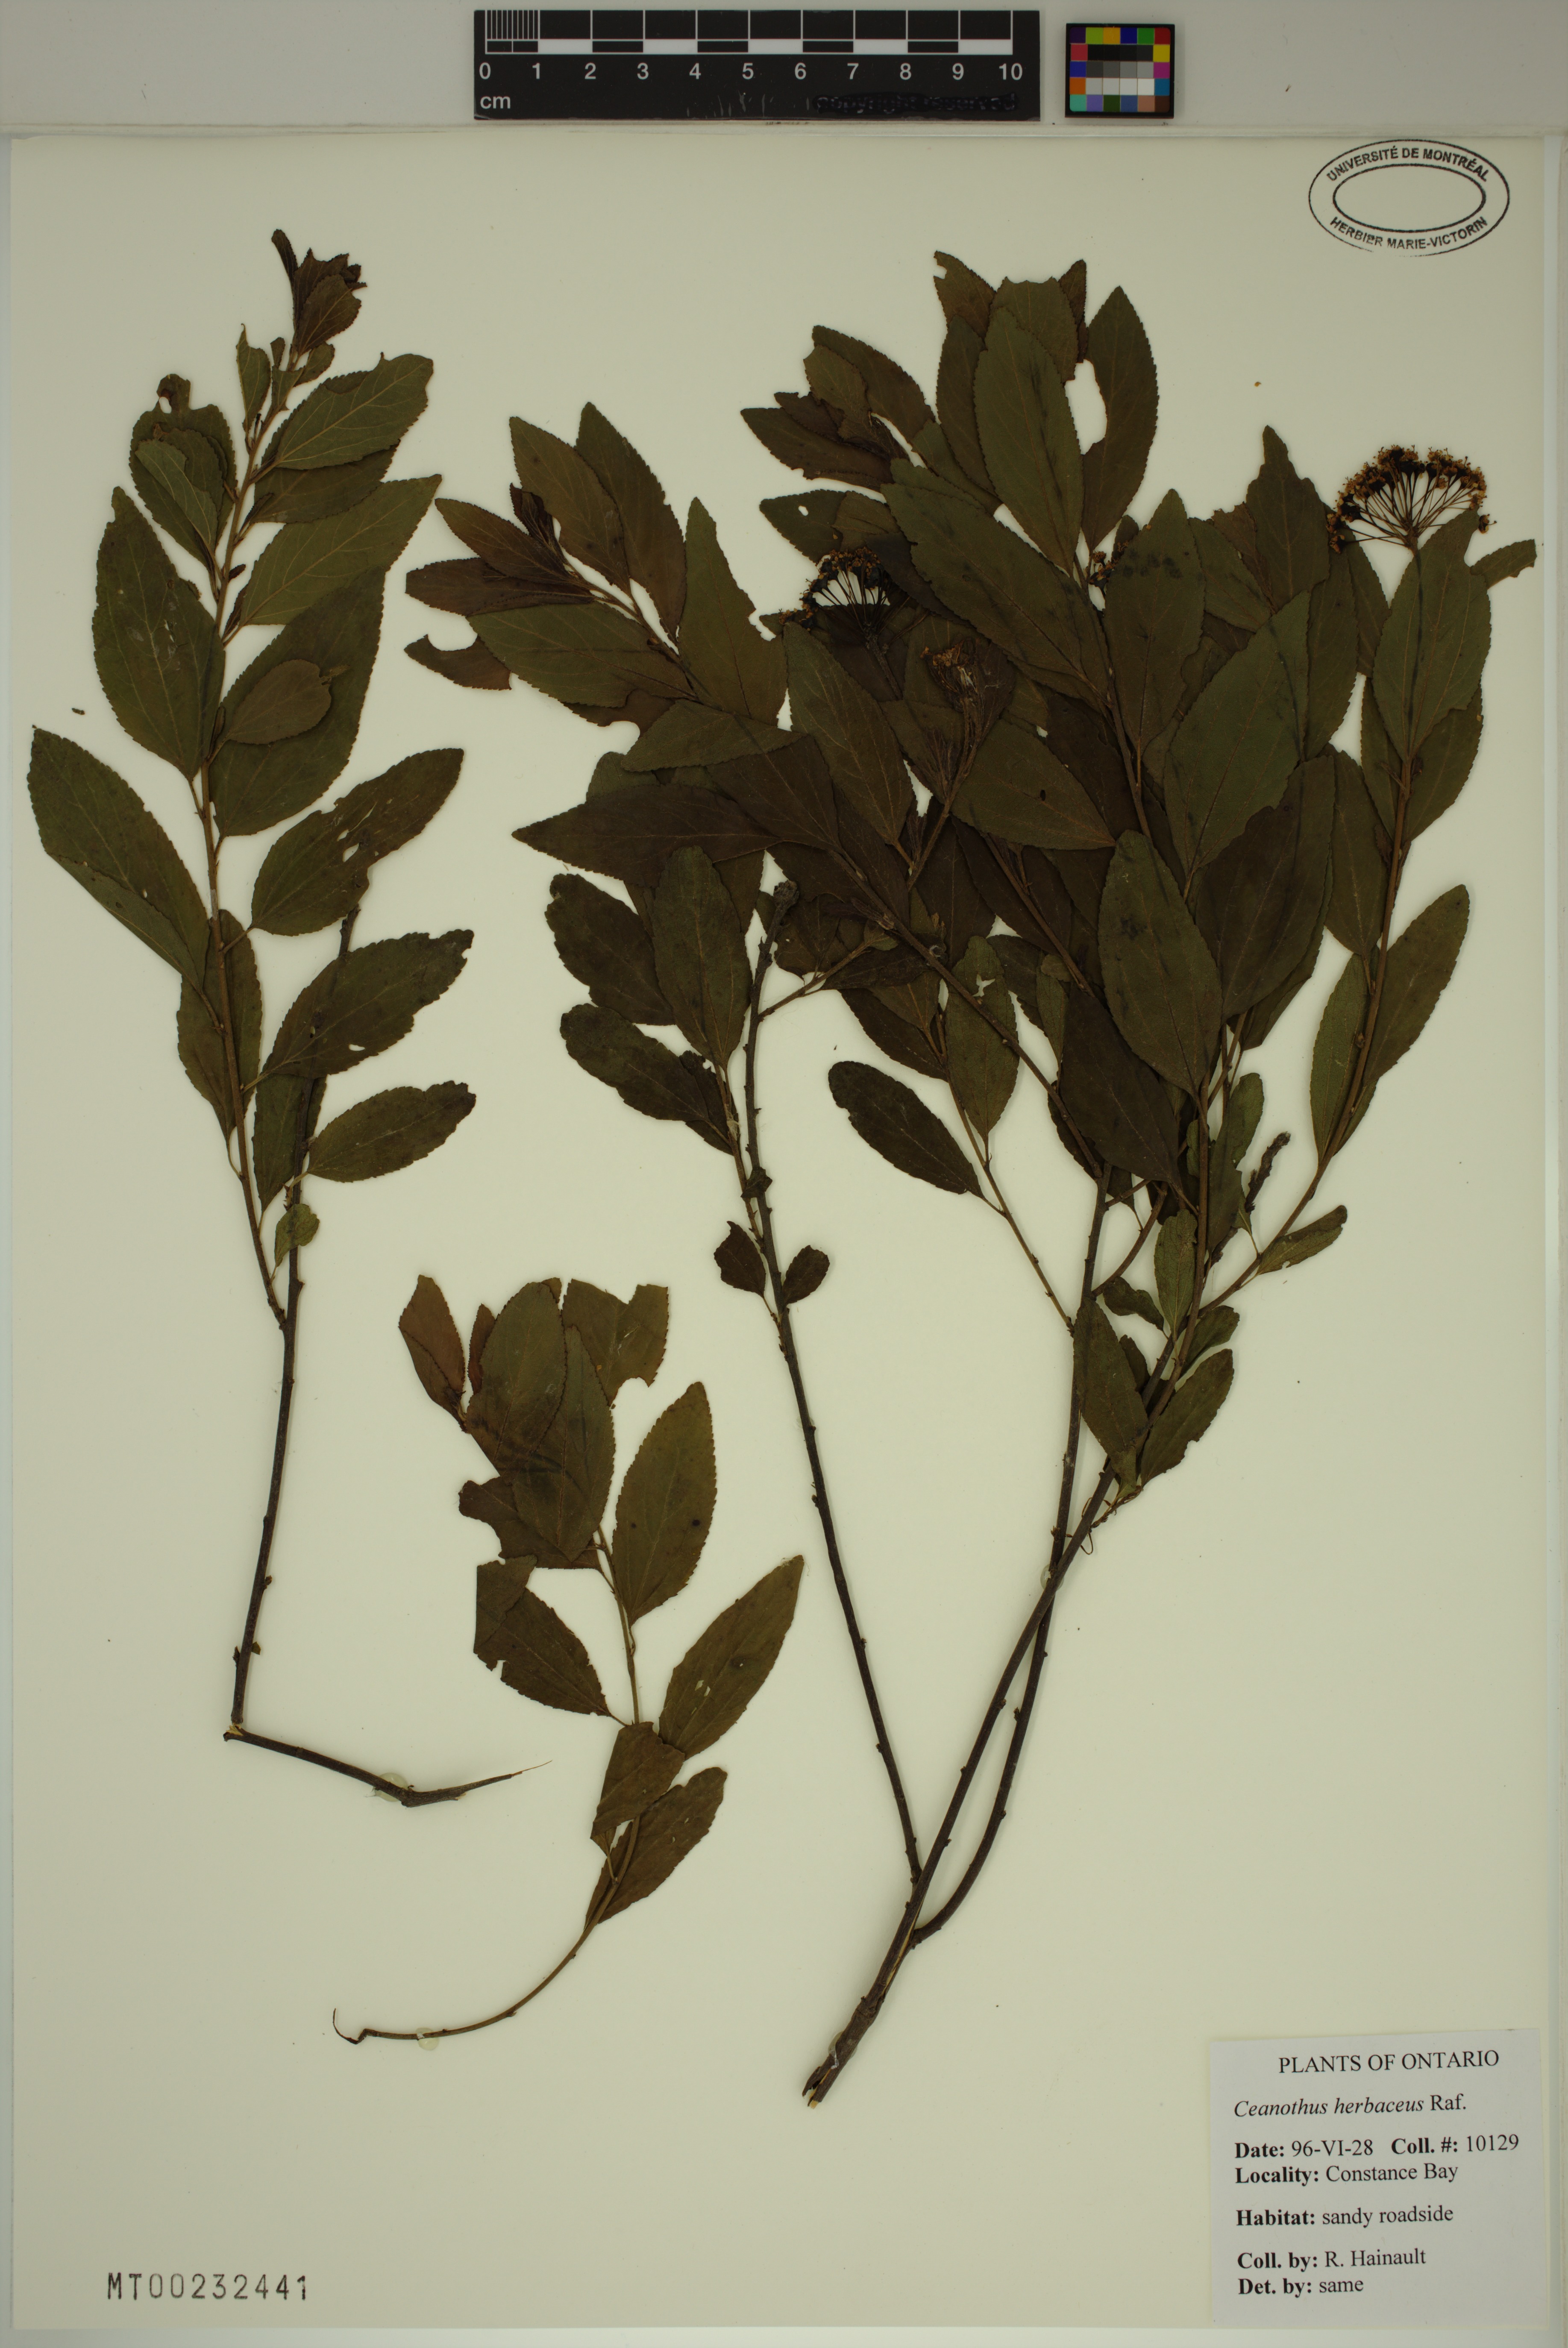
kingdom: Plantae
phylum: Tracheophyta
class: Magnoliopsida
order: Rosales
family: Rhamnaceae
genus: Ceanothus
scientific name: Ceanothus herbaceus
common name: Inland ceanothus
